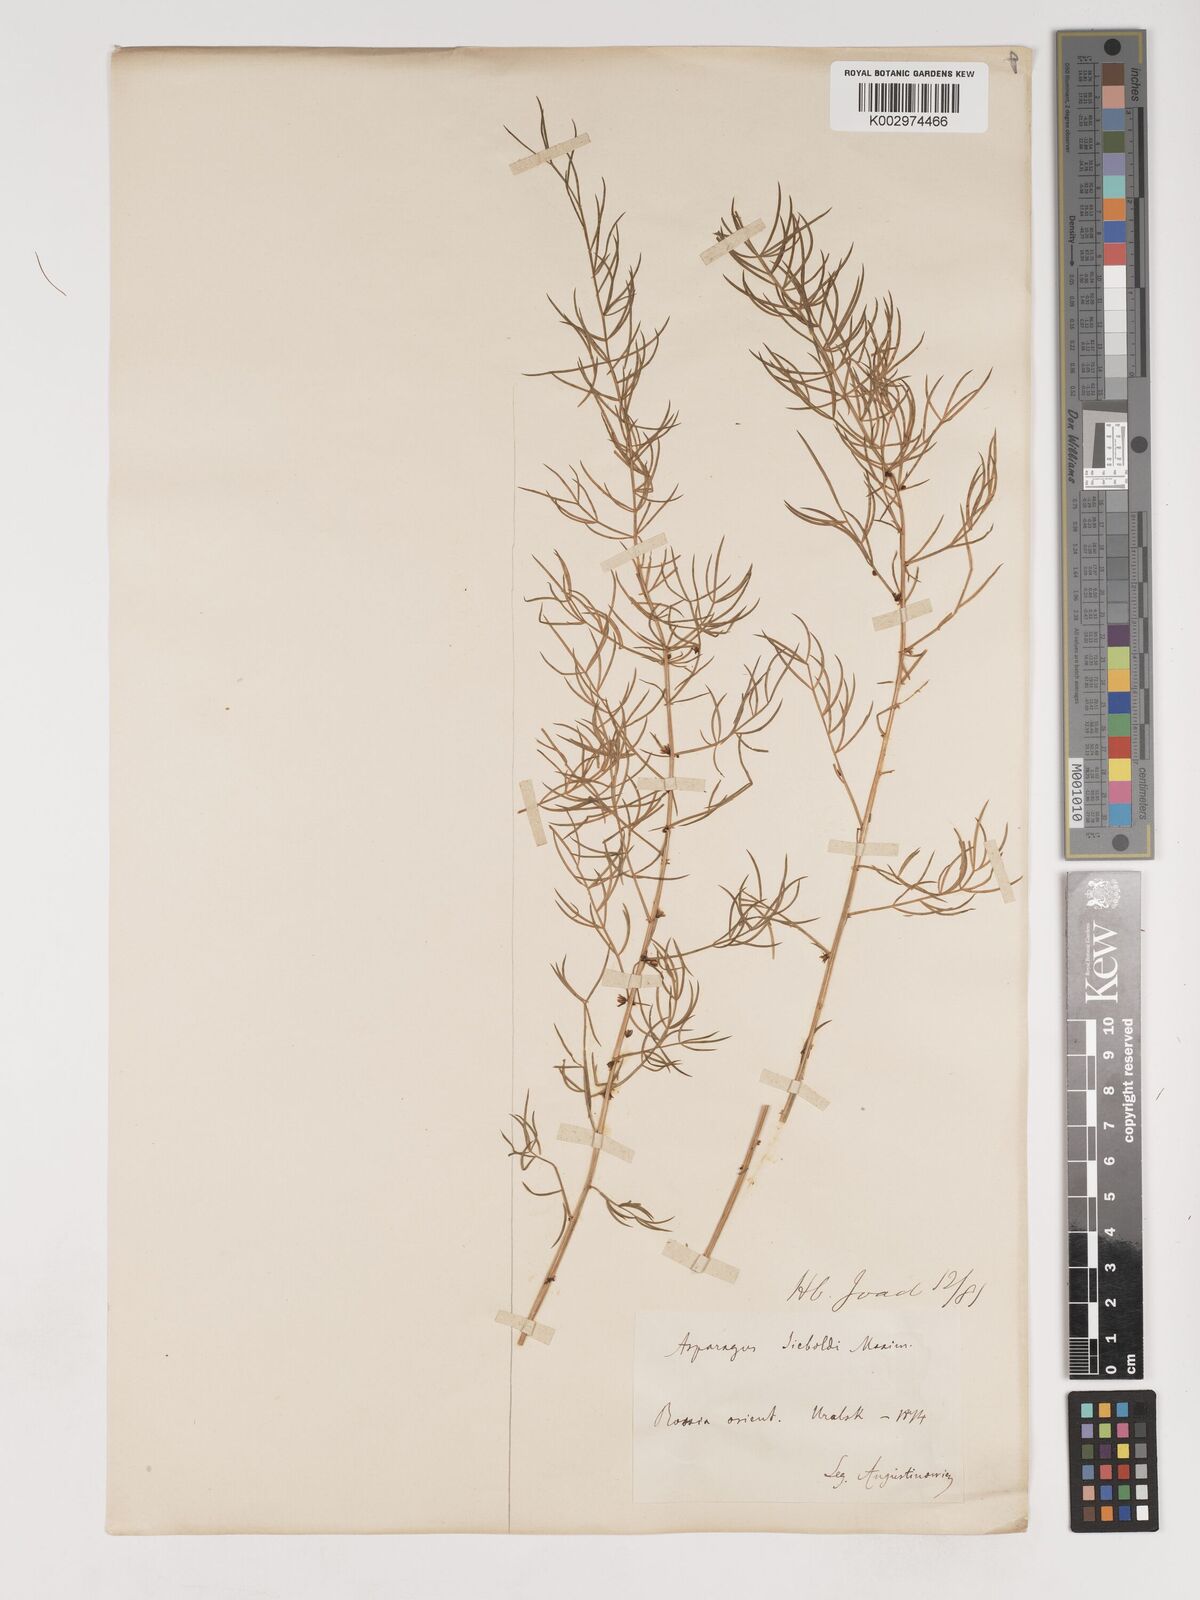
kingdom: Plantae
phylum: Tracheophyta
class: Liliopsida
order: Asparagales
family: Asparagaceae
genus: Asparagus
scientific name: Asparagus schoberioides
